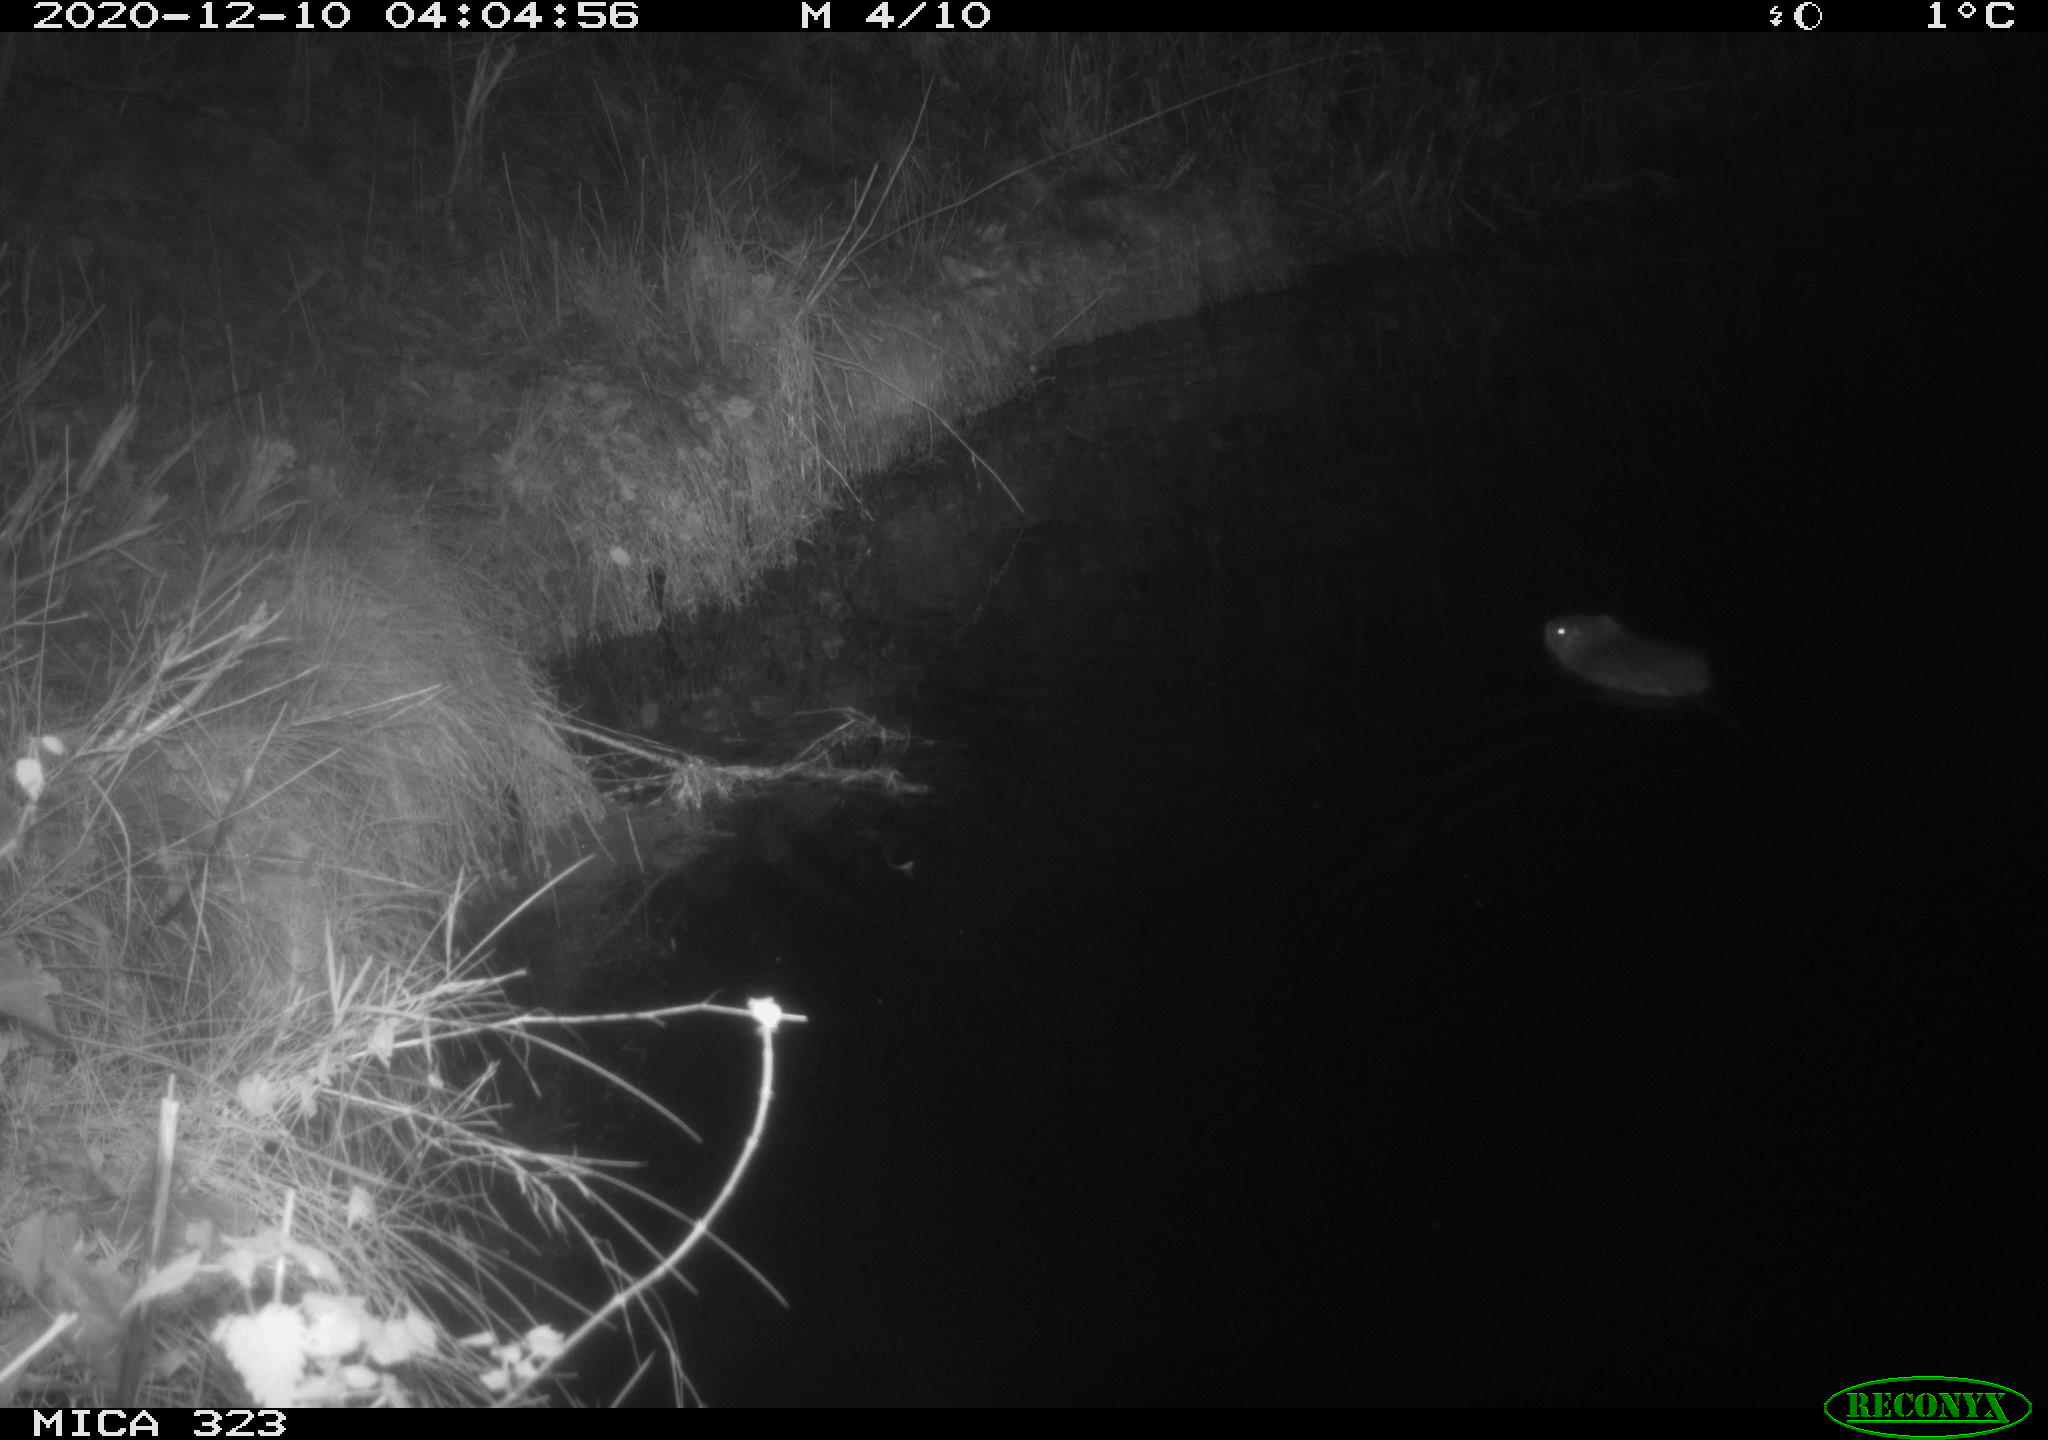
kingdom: Animalia
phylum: Chordata
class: Mammalia
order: Rodentia
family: Myocastoridae
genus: Myocastor
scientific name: Myocastor coypus
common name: Coypu
